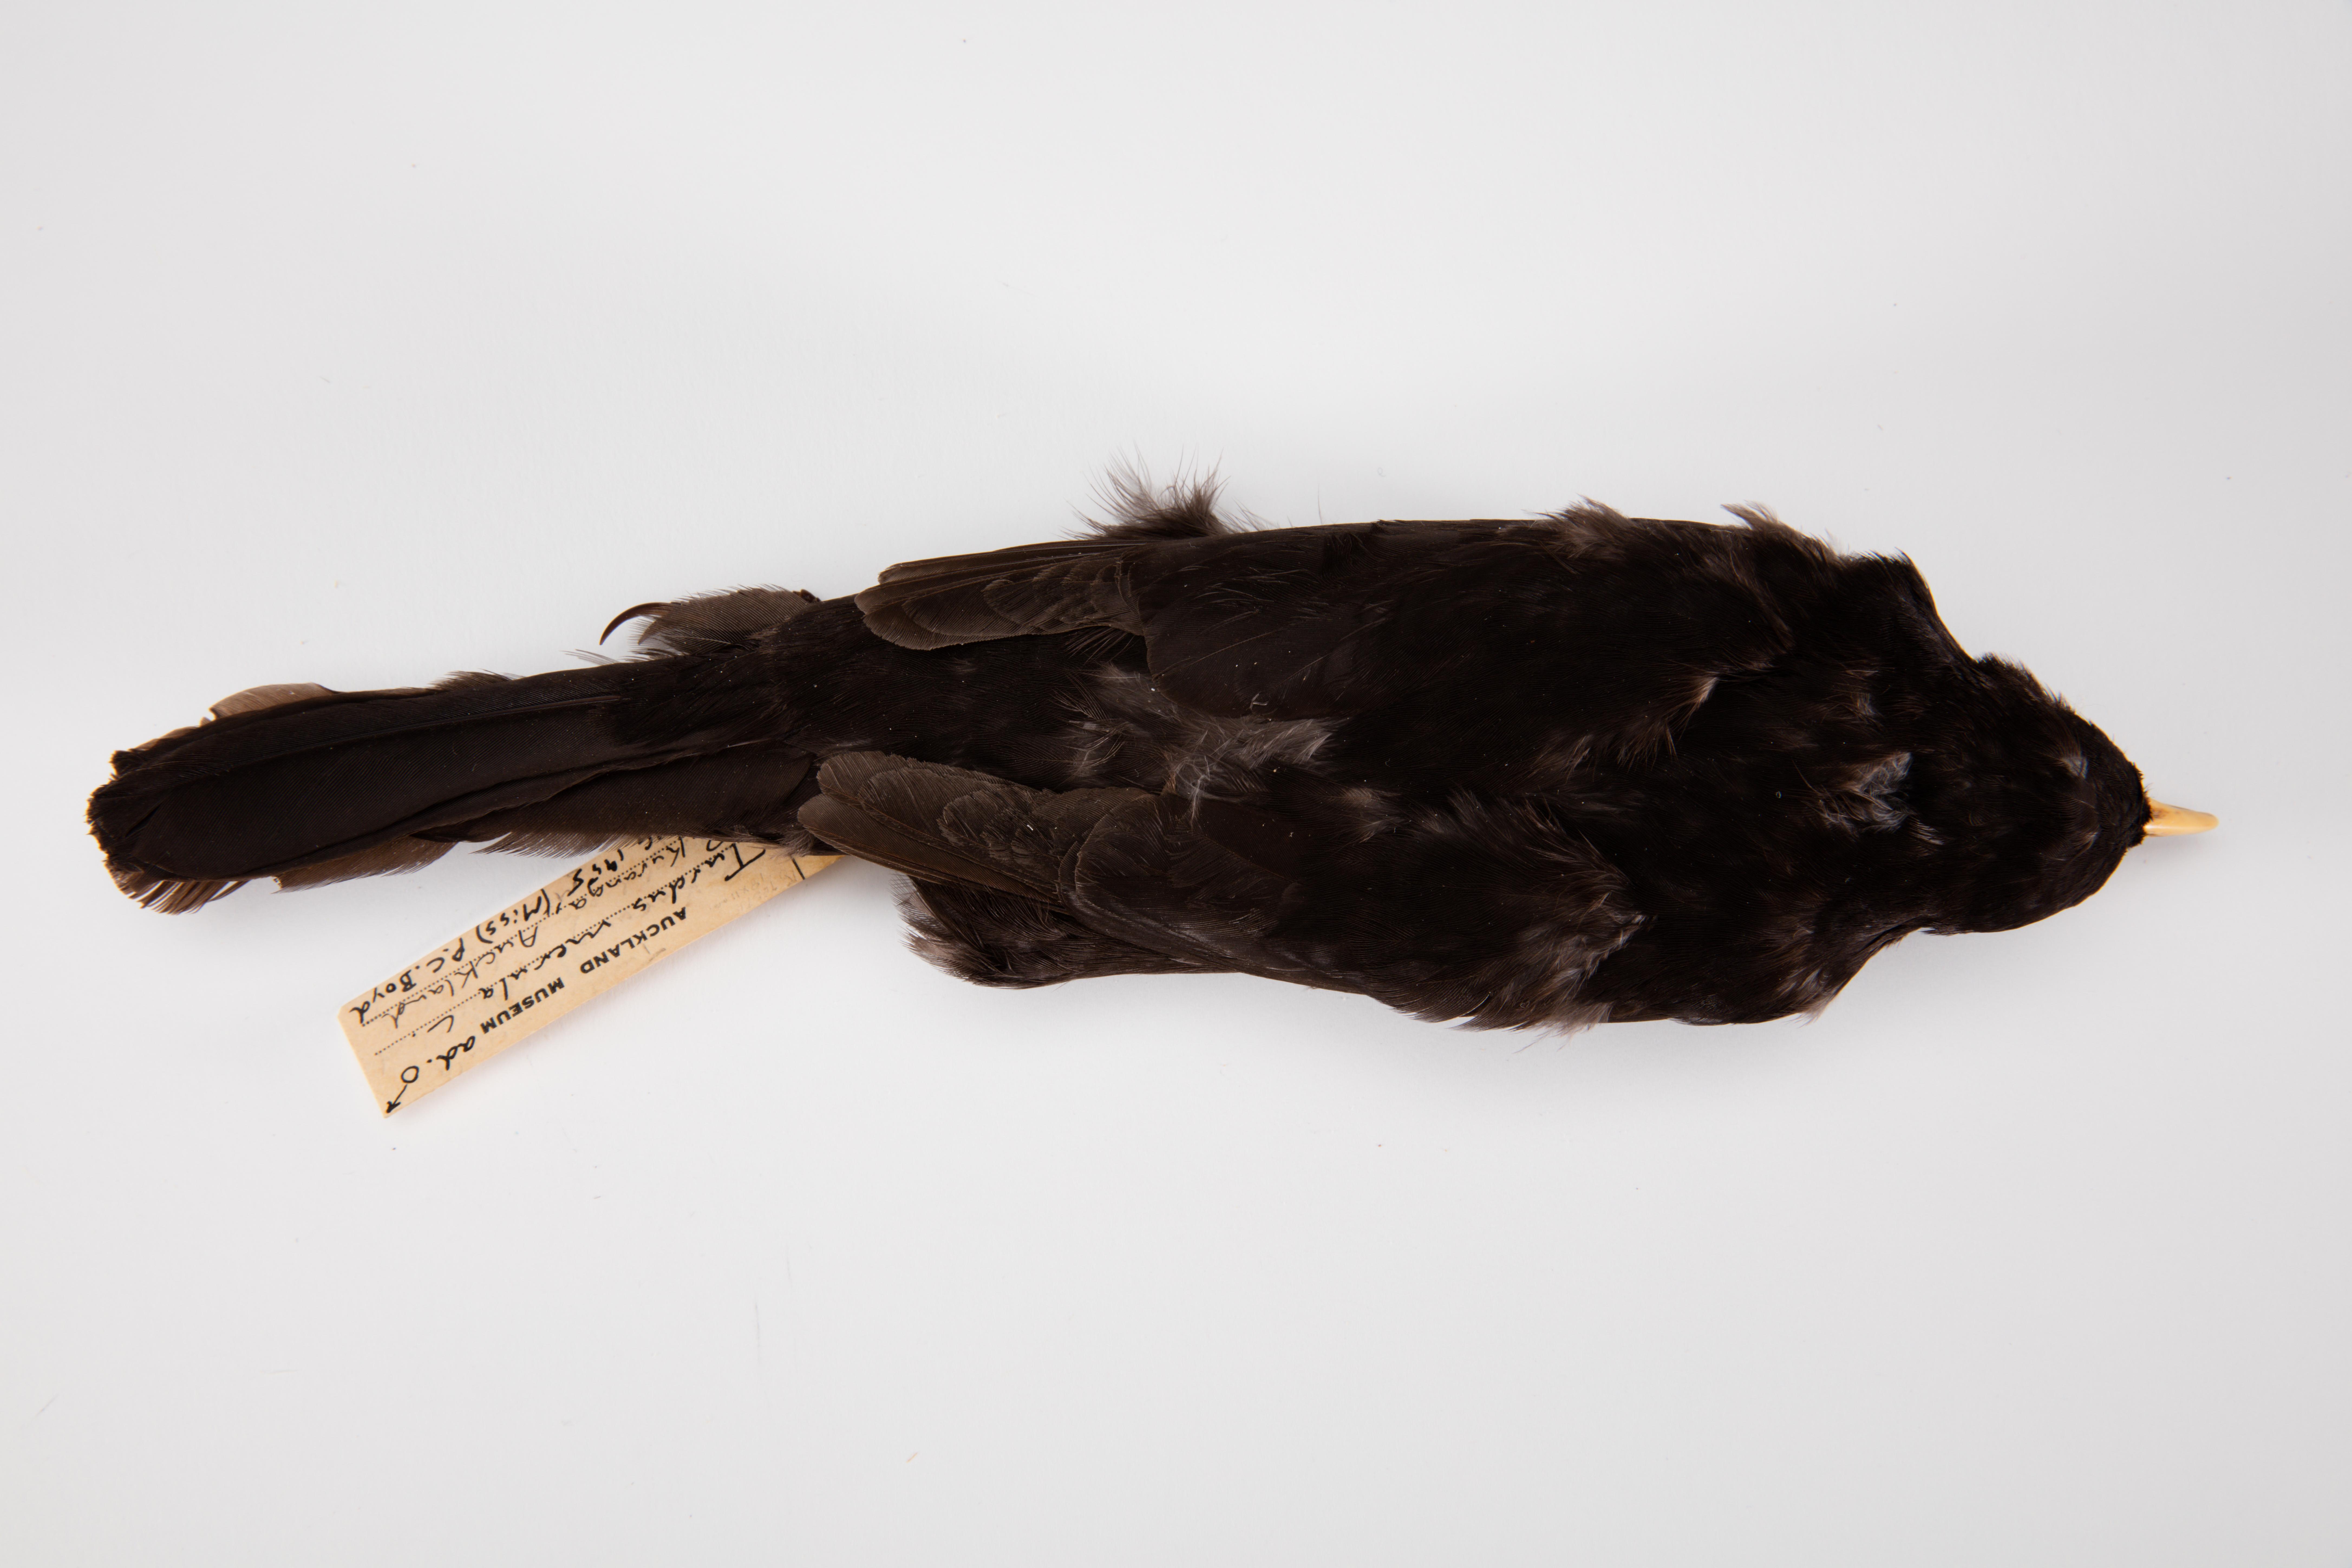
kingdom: Animalia
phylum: Chordata
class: Aves
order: Passeriformes
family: Turdidae
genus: Turdus
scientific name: Turdus merula
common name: Common blackbird
